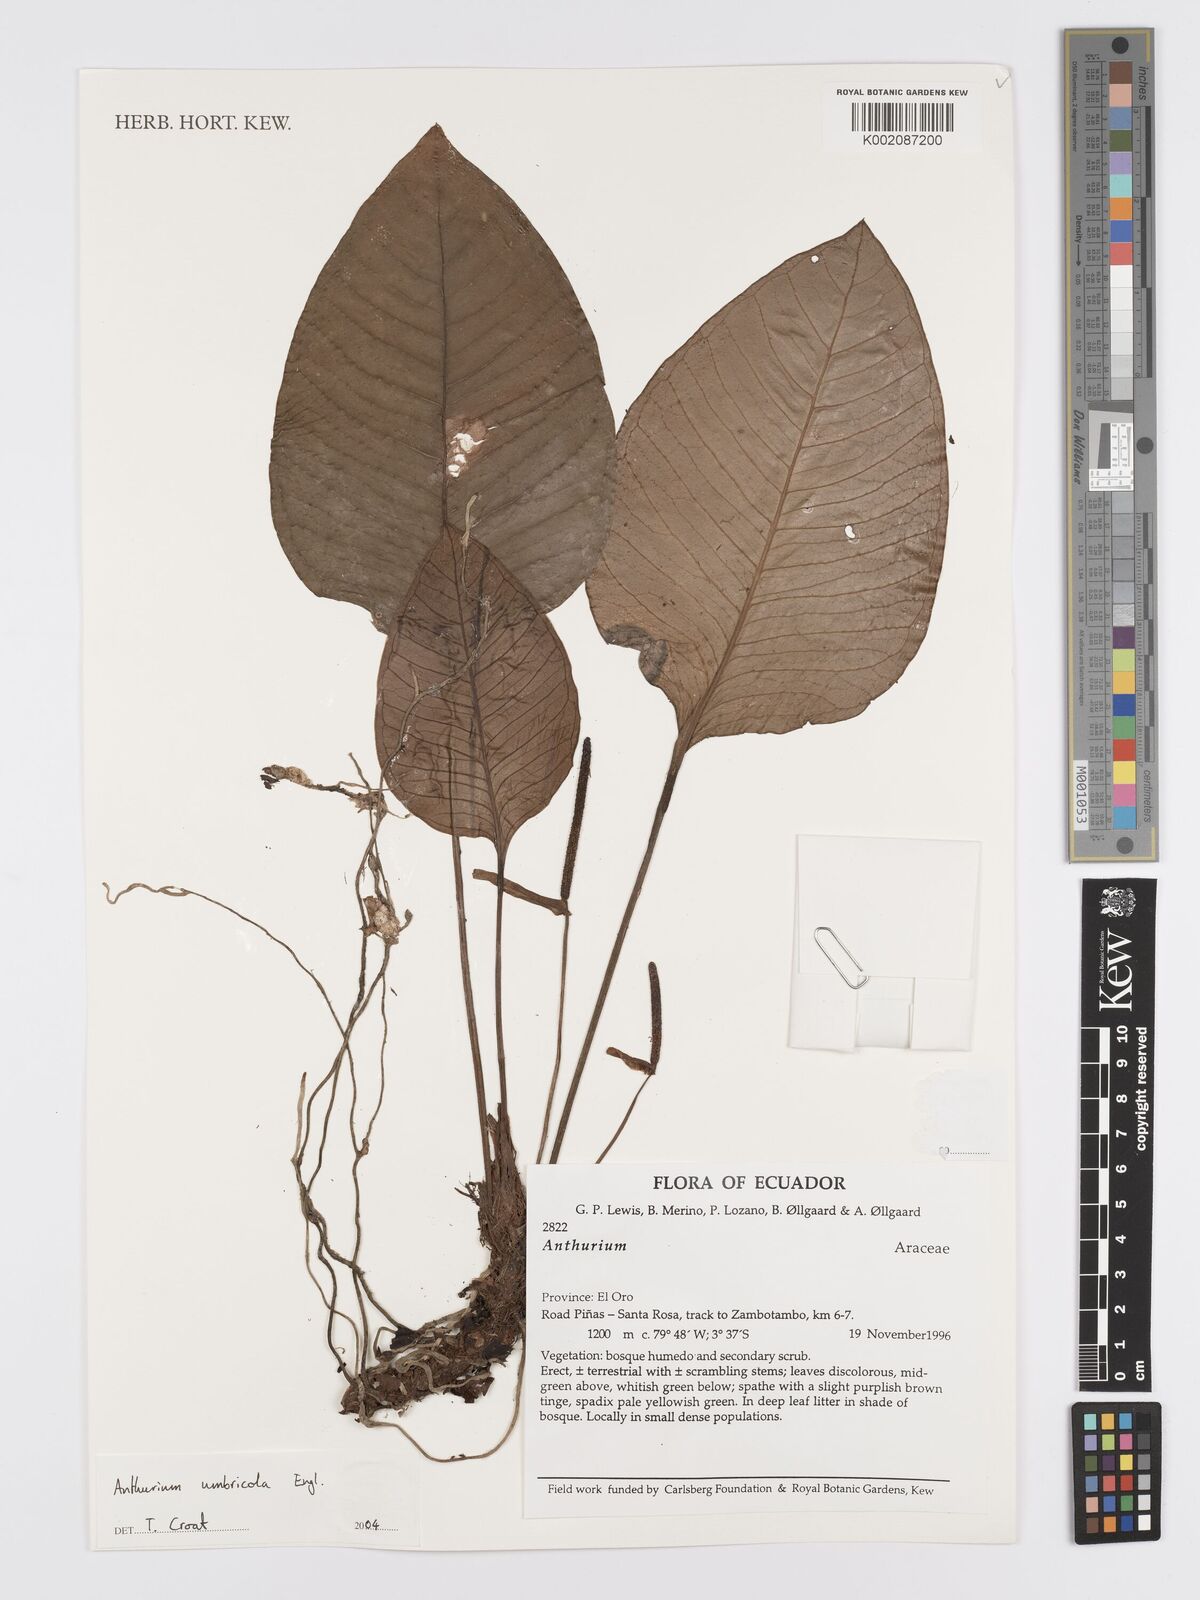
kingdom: Plantae
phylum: Tracheophyta
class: Liliopsida
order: Alismatales
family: Araceae
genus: Anthurium
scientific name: Anthurium umbricola
